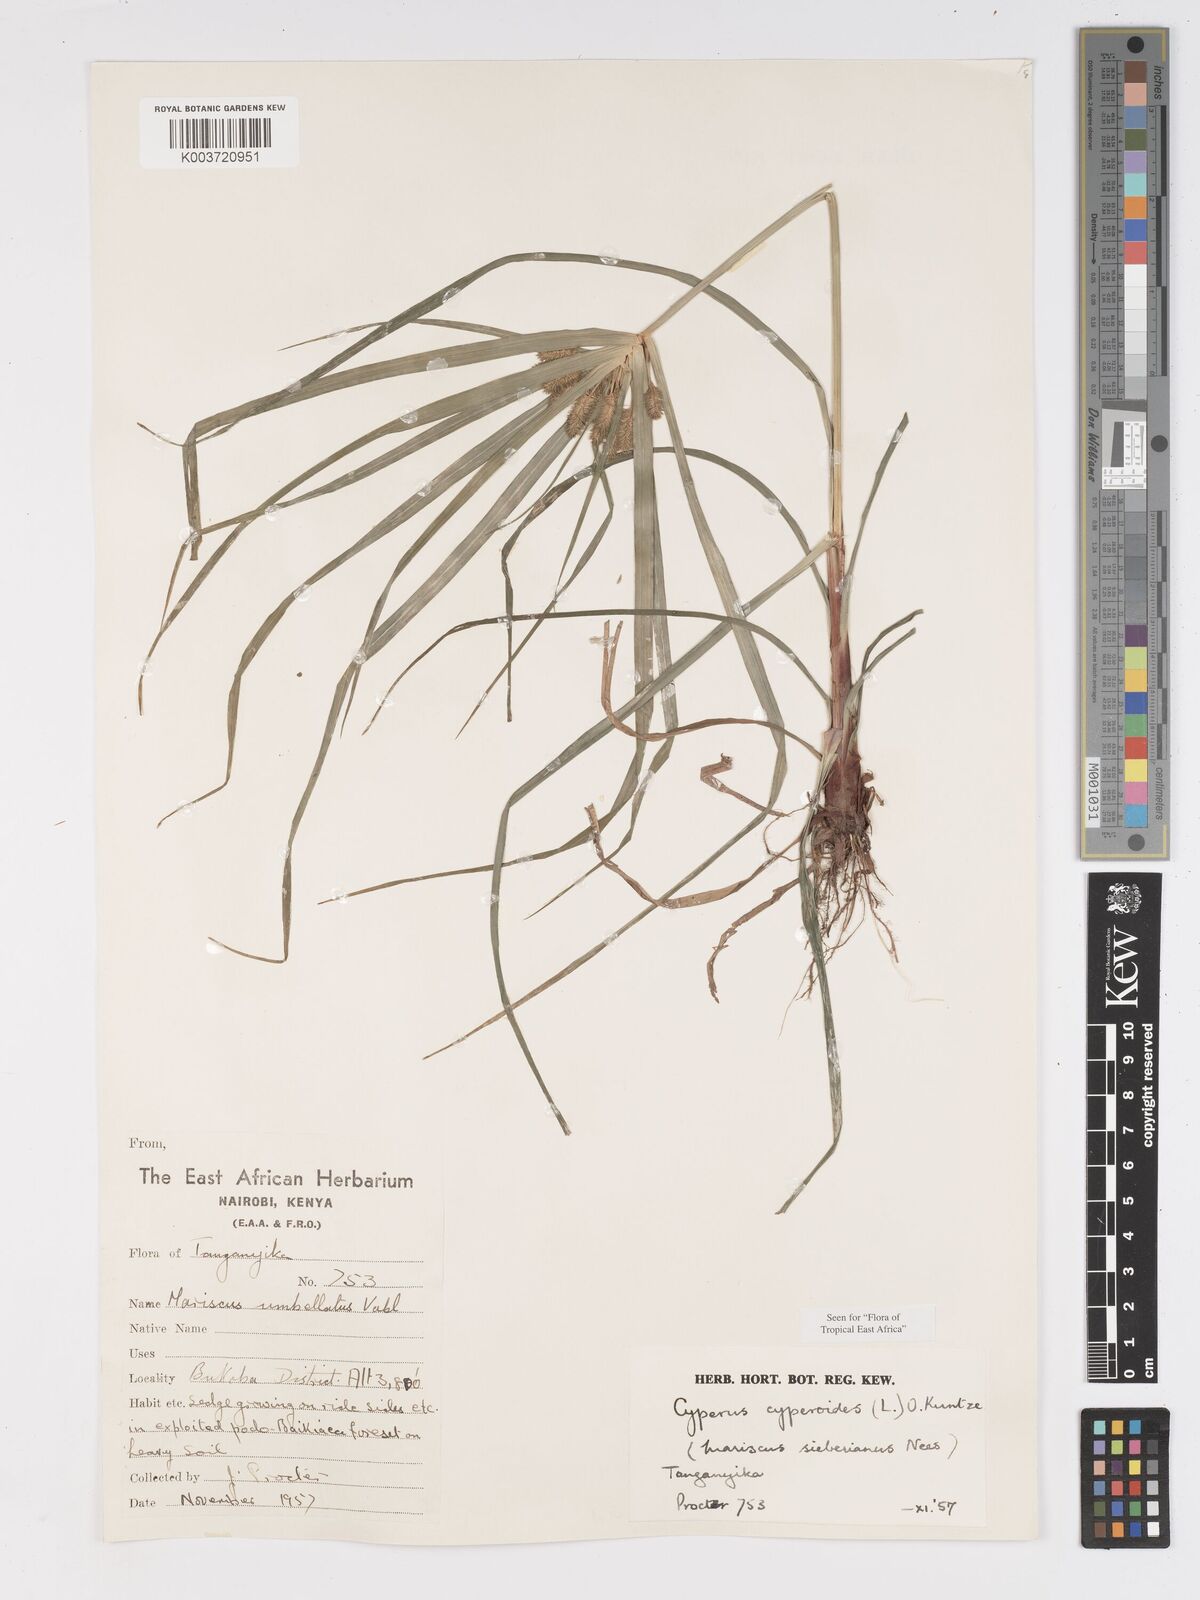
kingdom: Plantae
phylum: Tracheophyta
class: Liliopsida
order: Poales
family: Cyperaceae
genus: Cyperus
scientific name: Cyperus cyperoides
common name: Pacific island flat sedge
